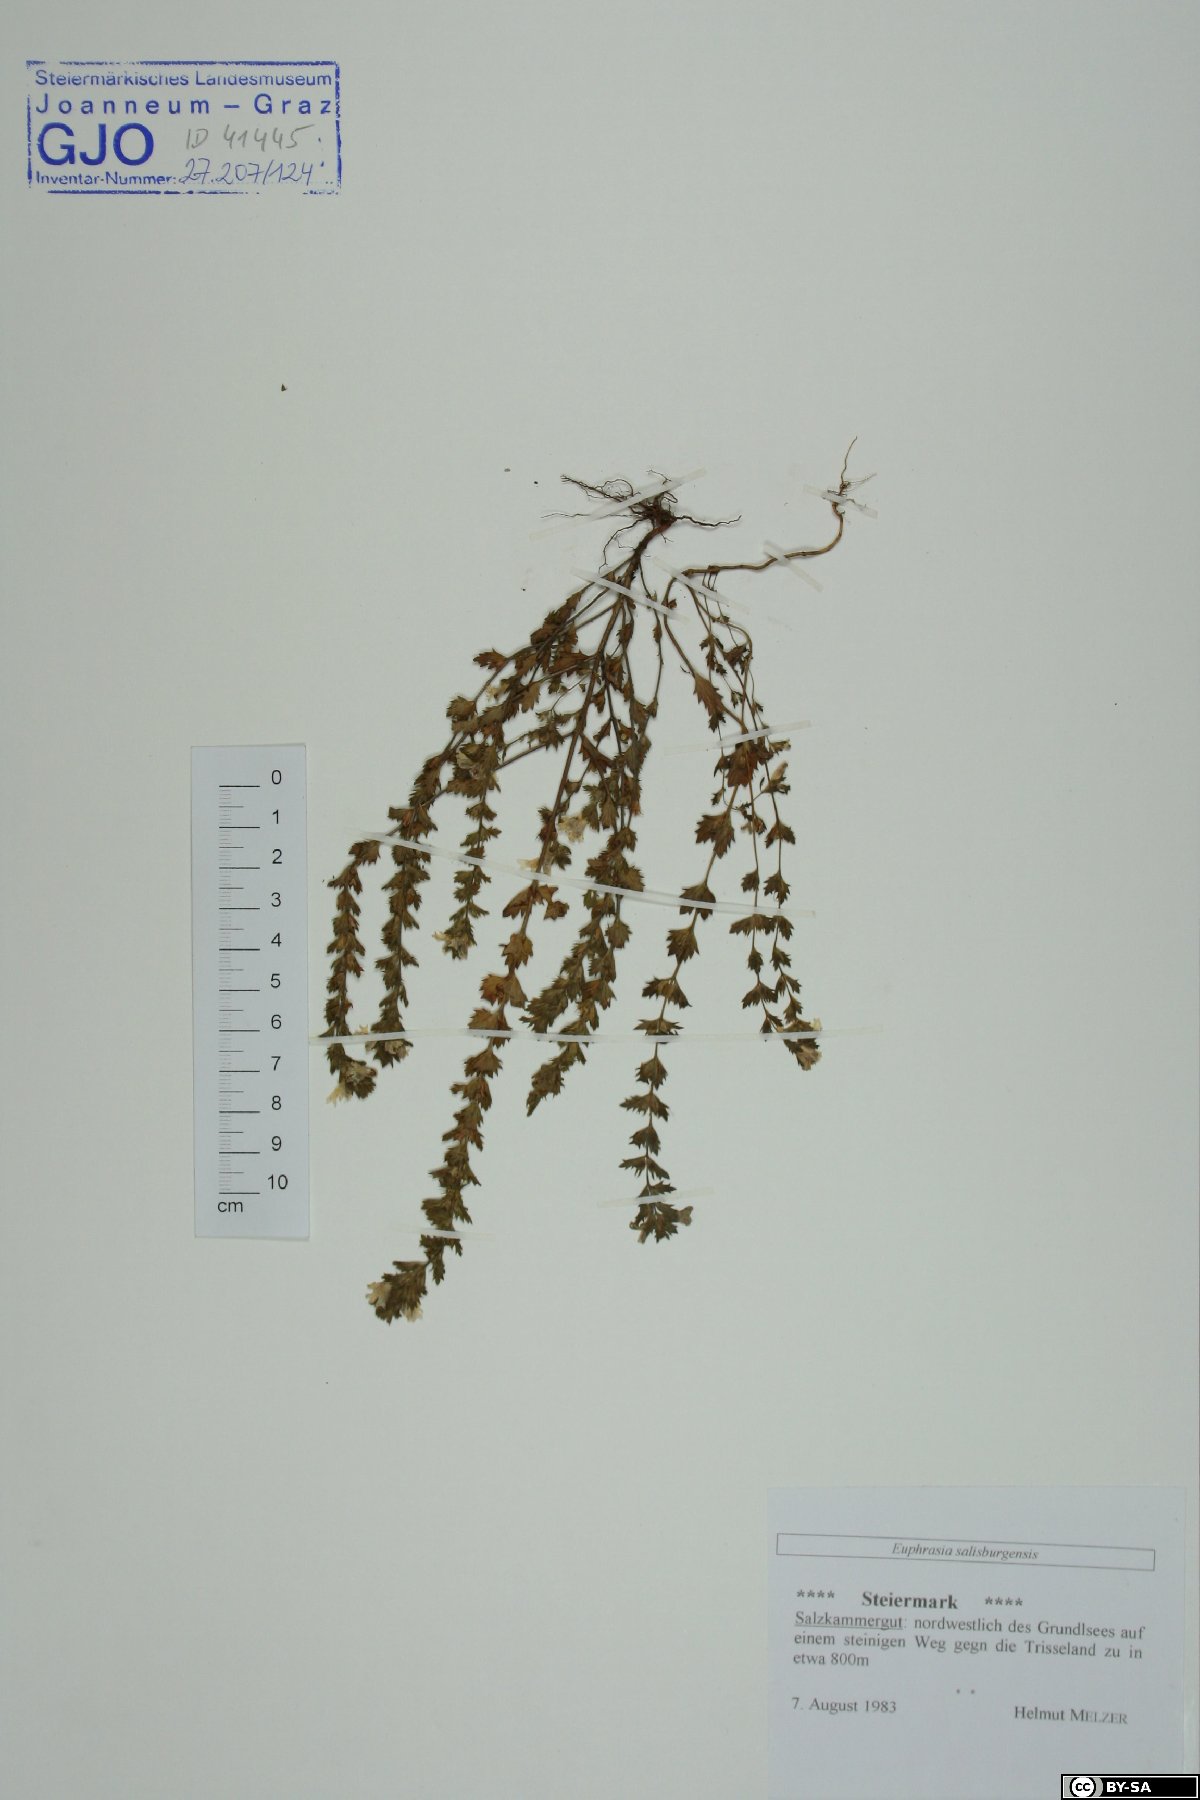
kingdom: Plantae
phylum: Tracheophyta
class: Magnoliopsida
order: Lamiales
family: Orobanchaceae
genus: Euphrasia
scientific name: Euphrasia salisburgensis
